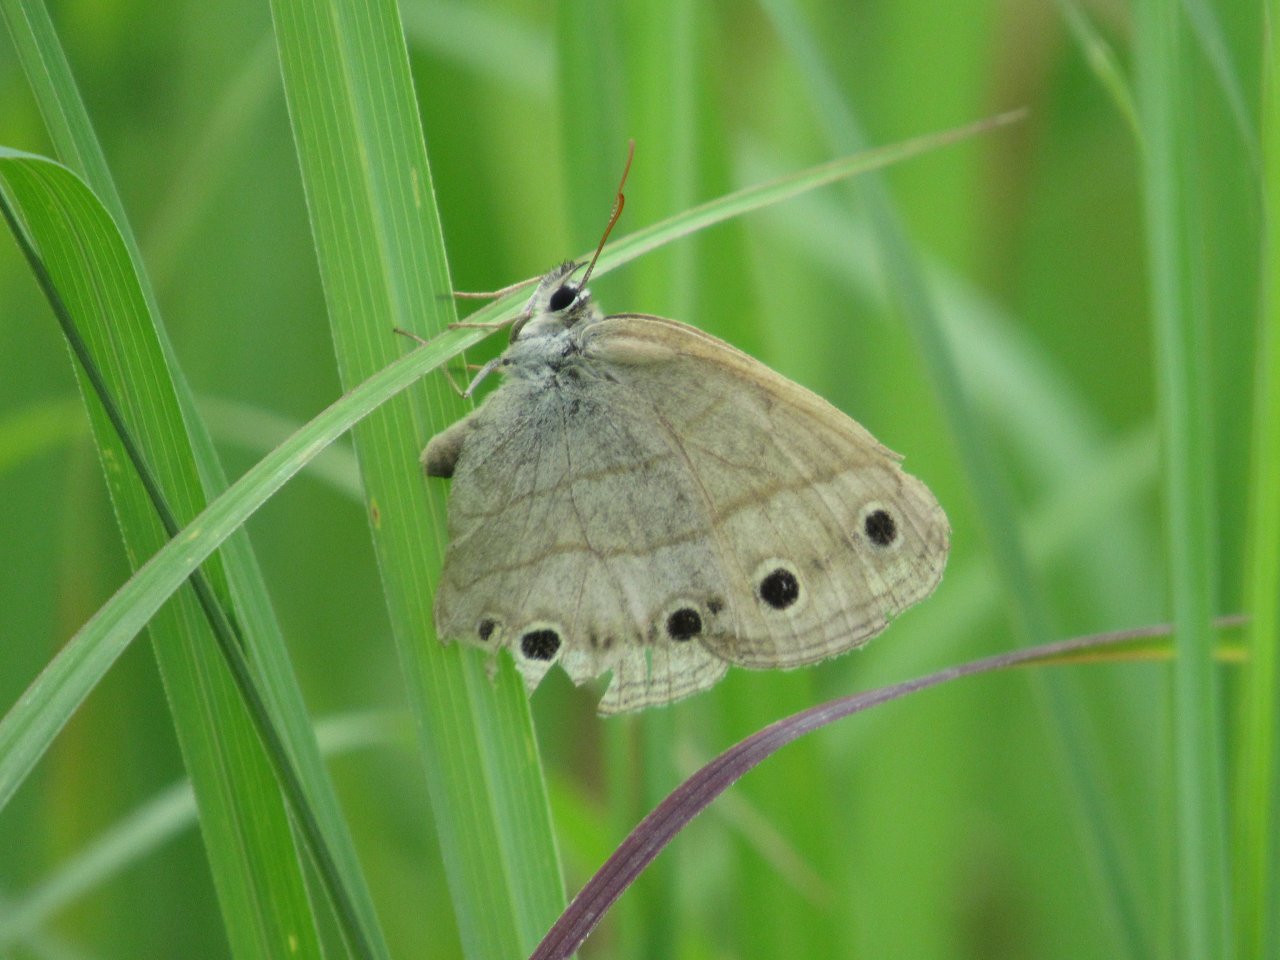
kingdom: Animalia
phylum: Arthropoda
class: Insecta
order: Lepidoptera
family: Nymphalidae
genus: Euptychia
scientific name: Euptychia cymela
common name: Little Wood Satyr
